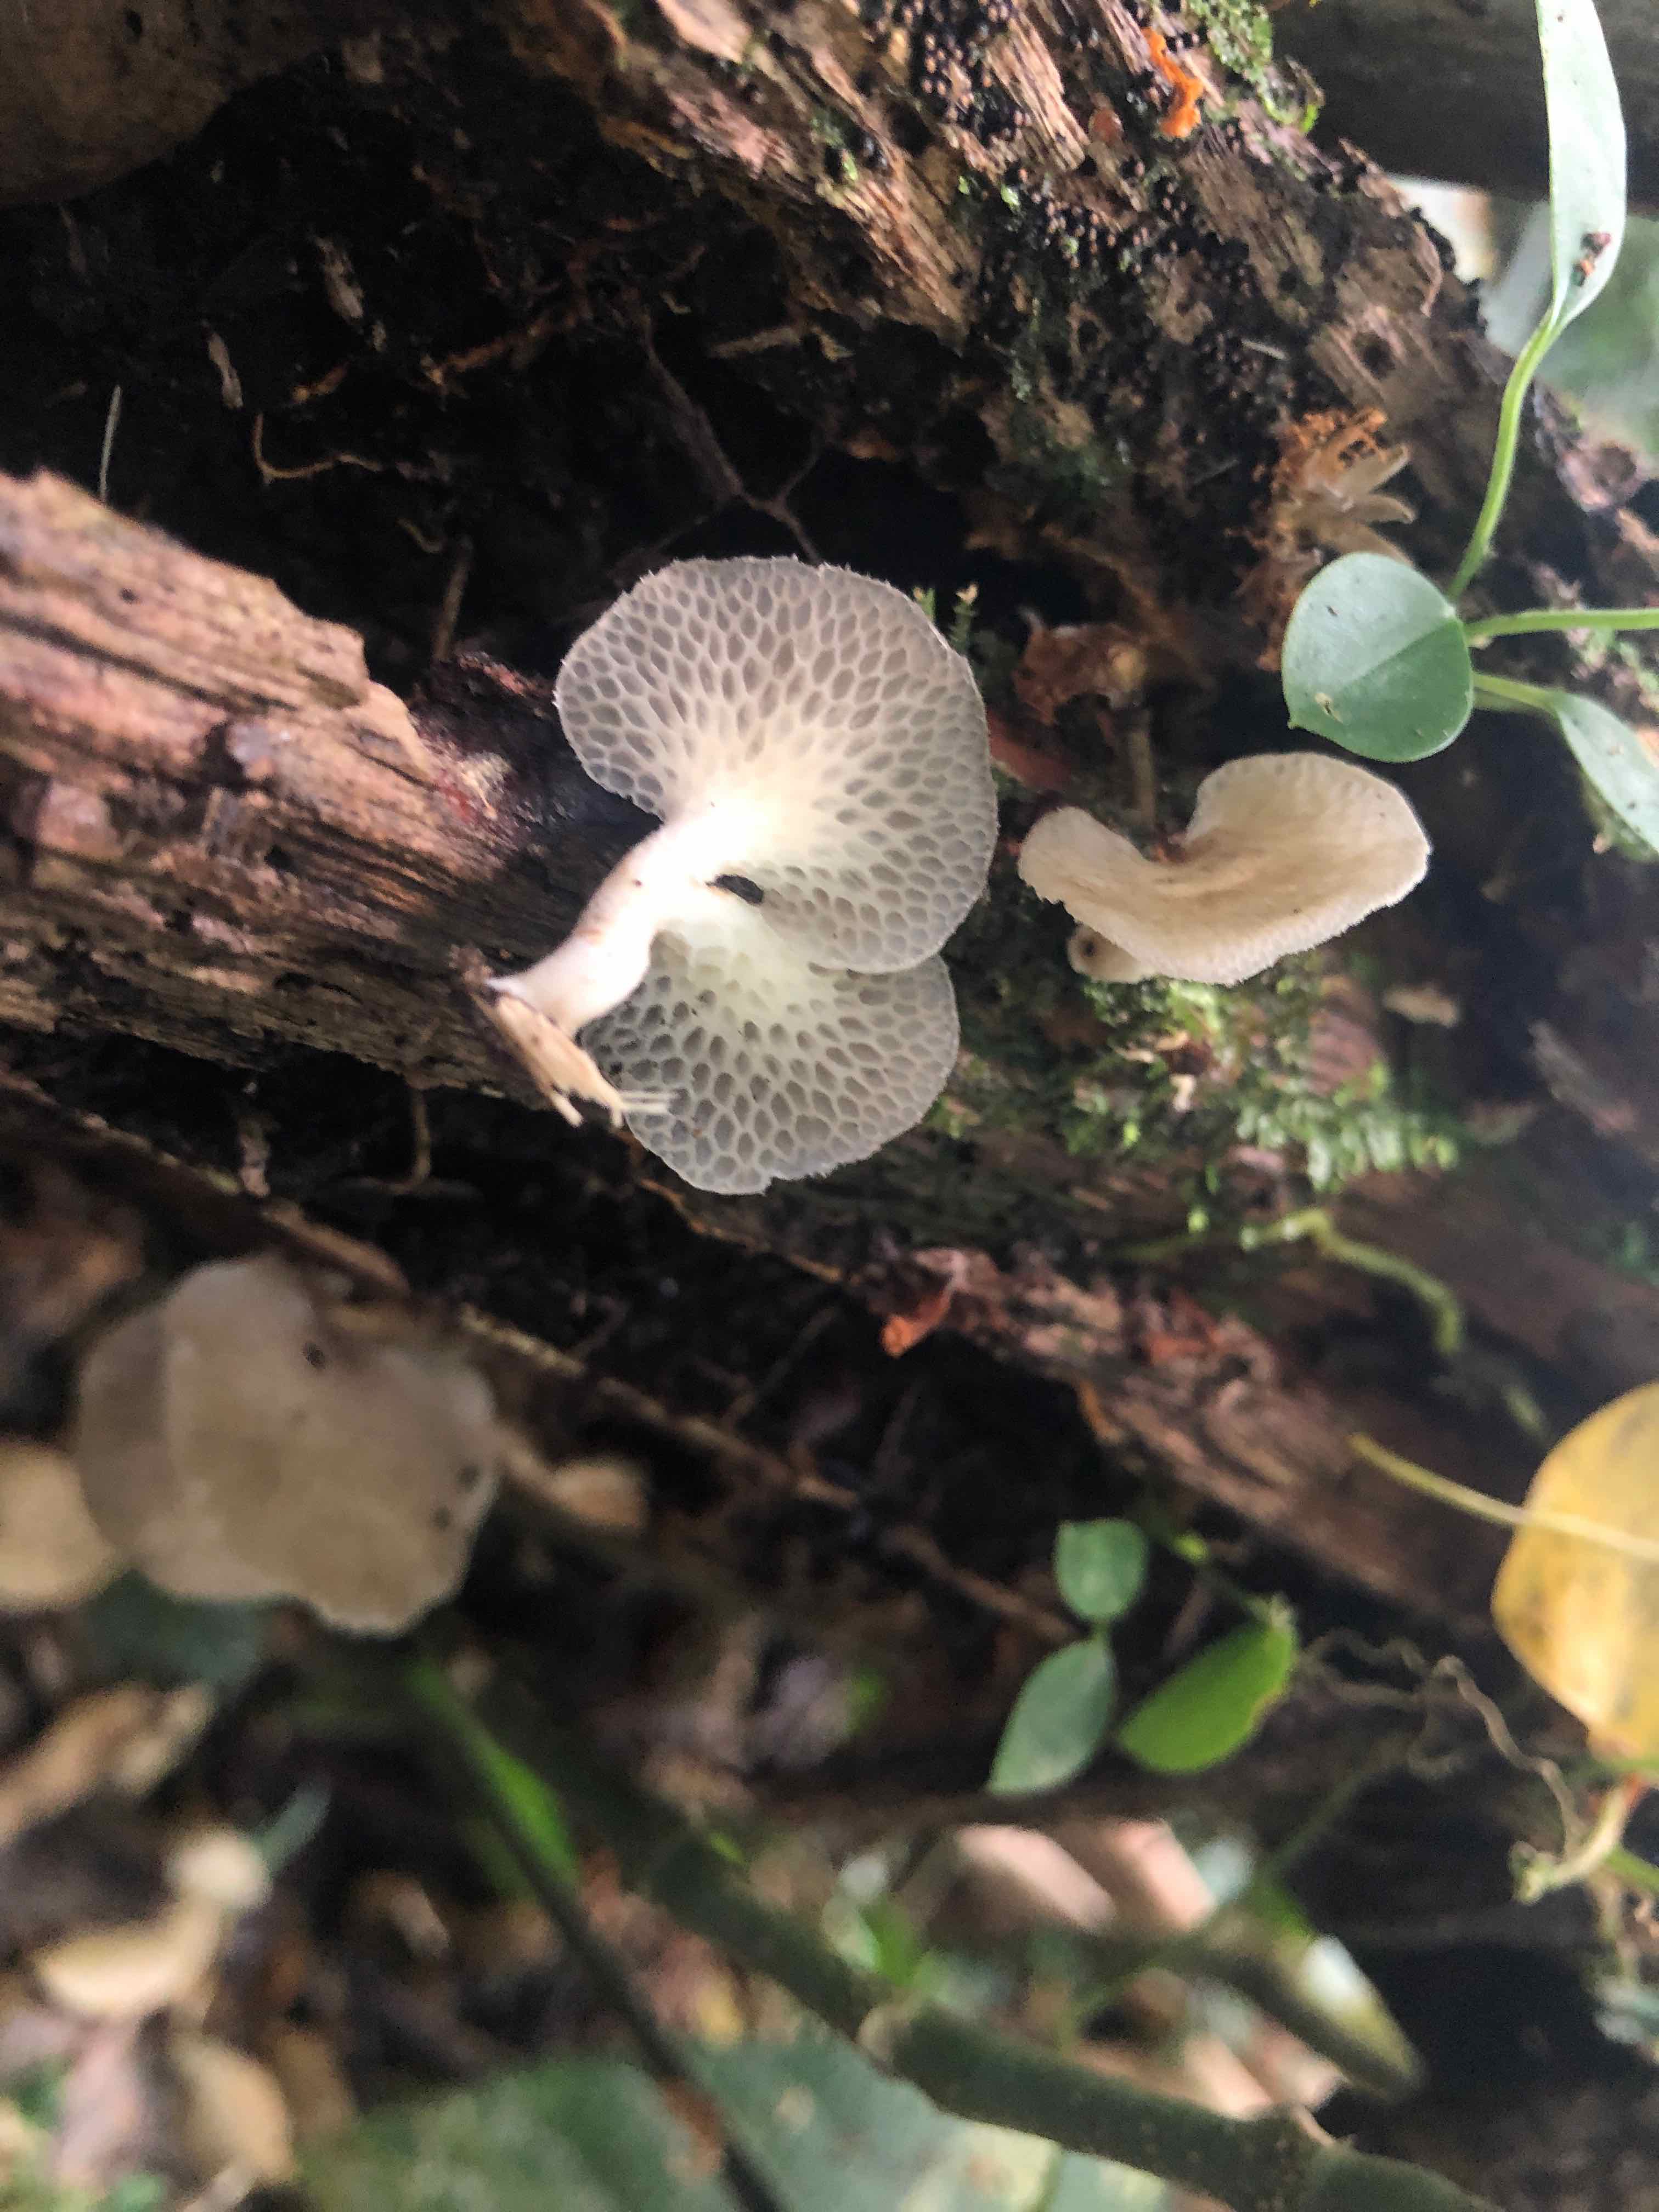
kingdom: Fungi
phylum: Basidiomycota
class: Agaricomycetes
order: Polyporales
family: Polyporaceae
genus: Polyporus
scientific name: Polyporus
